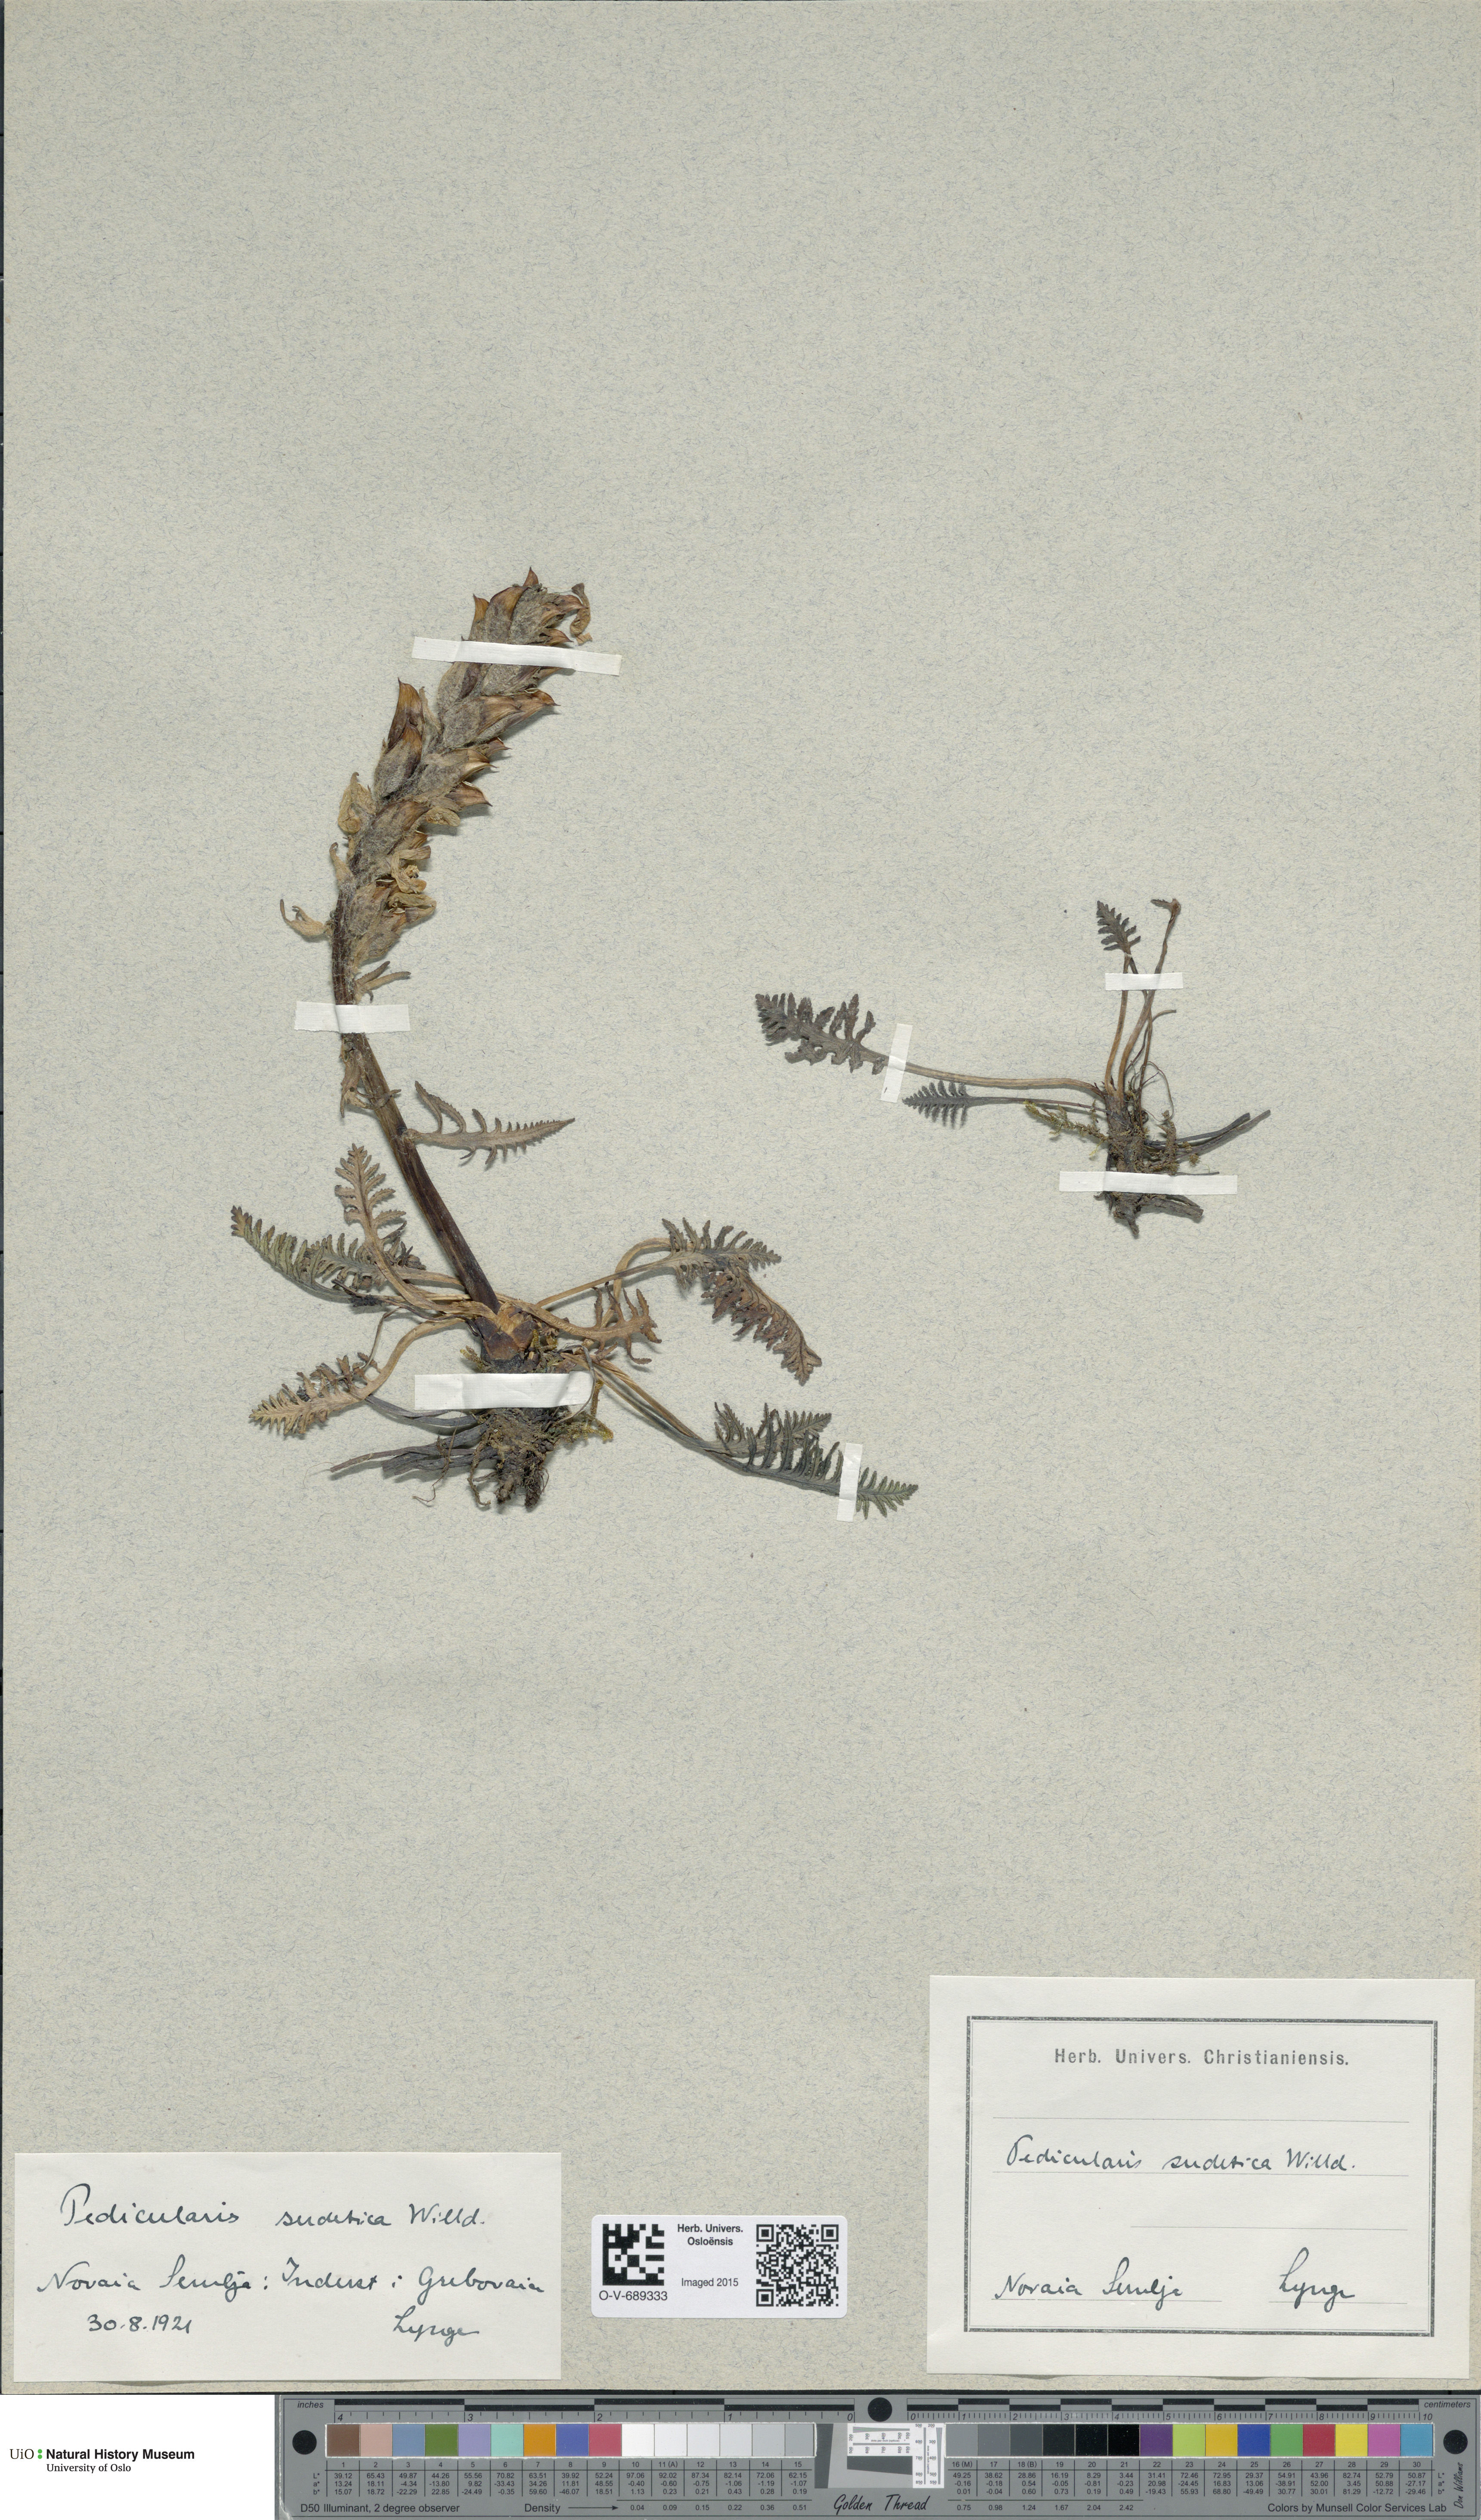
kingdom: Plantae
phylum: Tracheophyta
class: Magnoliopsida
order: Lamiales
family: Orobanchaceae
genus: Pedicularis
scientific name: Pedicularis sudetica
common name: Sudeten lousewort
